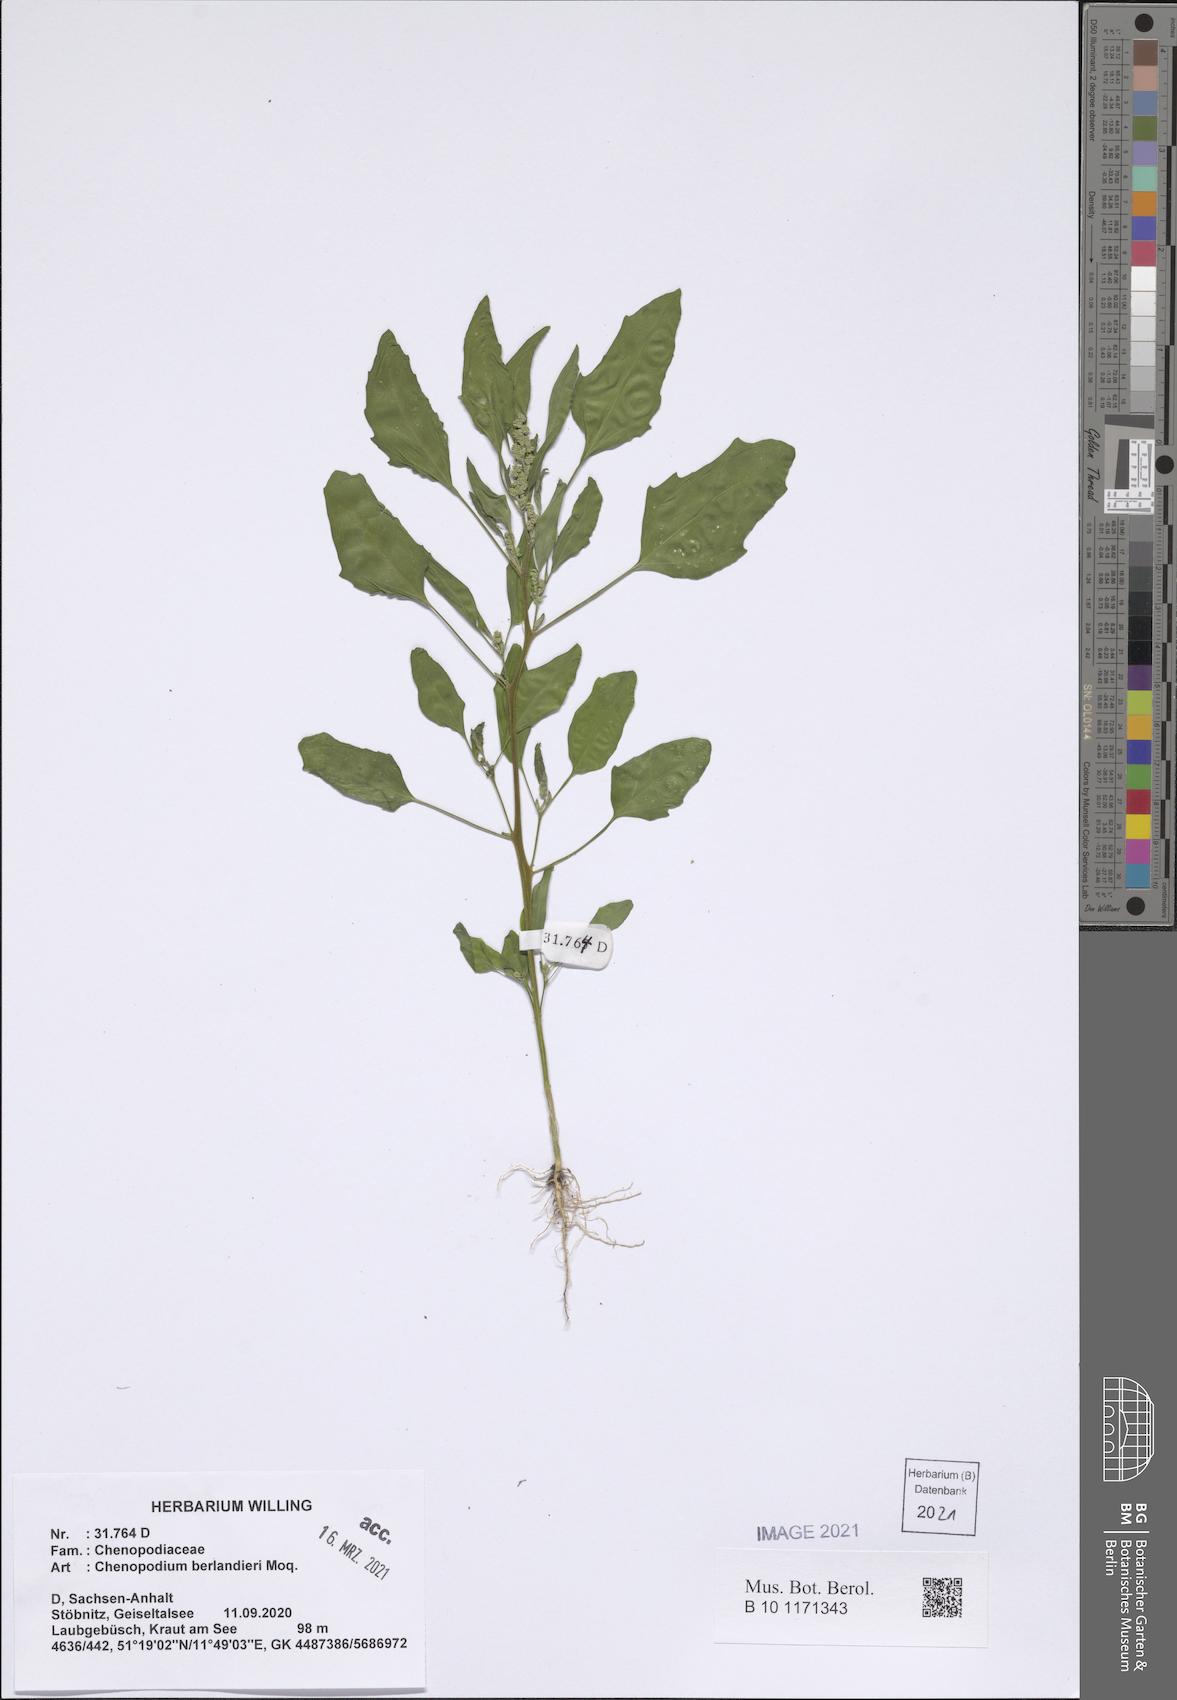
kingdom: Plantae
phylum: Tracheophyta
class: Magnoliopsida
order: Caryophyllales
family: Amaranthaceae
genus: Chenopodium
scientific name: Chenopodium berlandieri
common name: Pit-seed goosefoot
